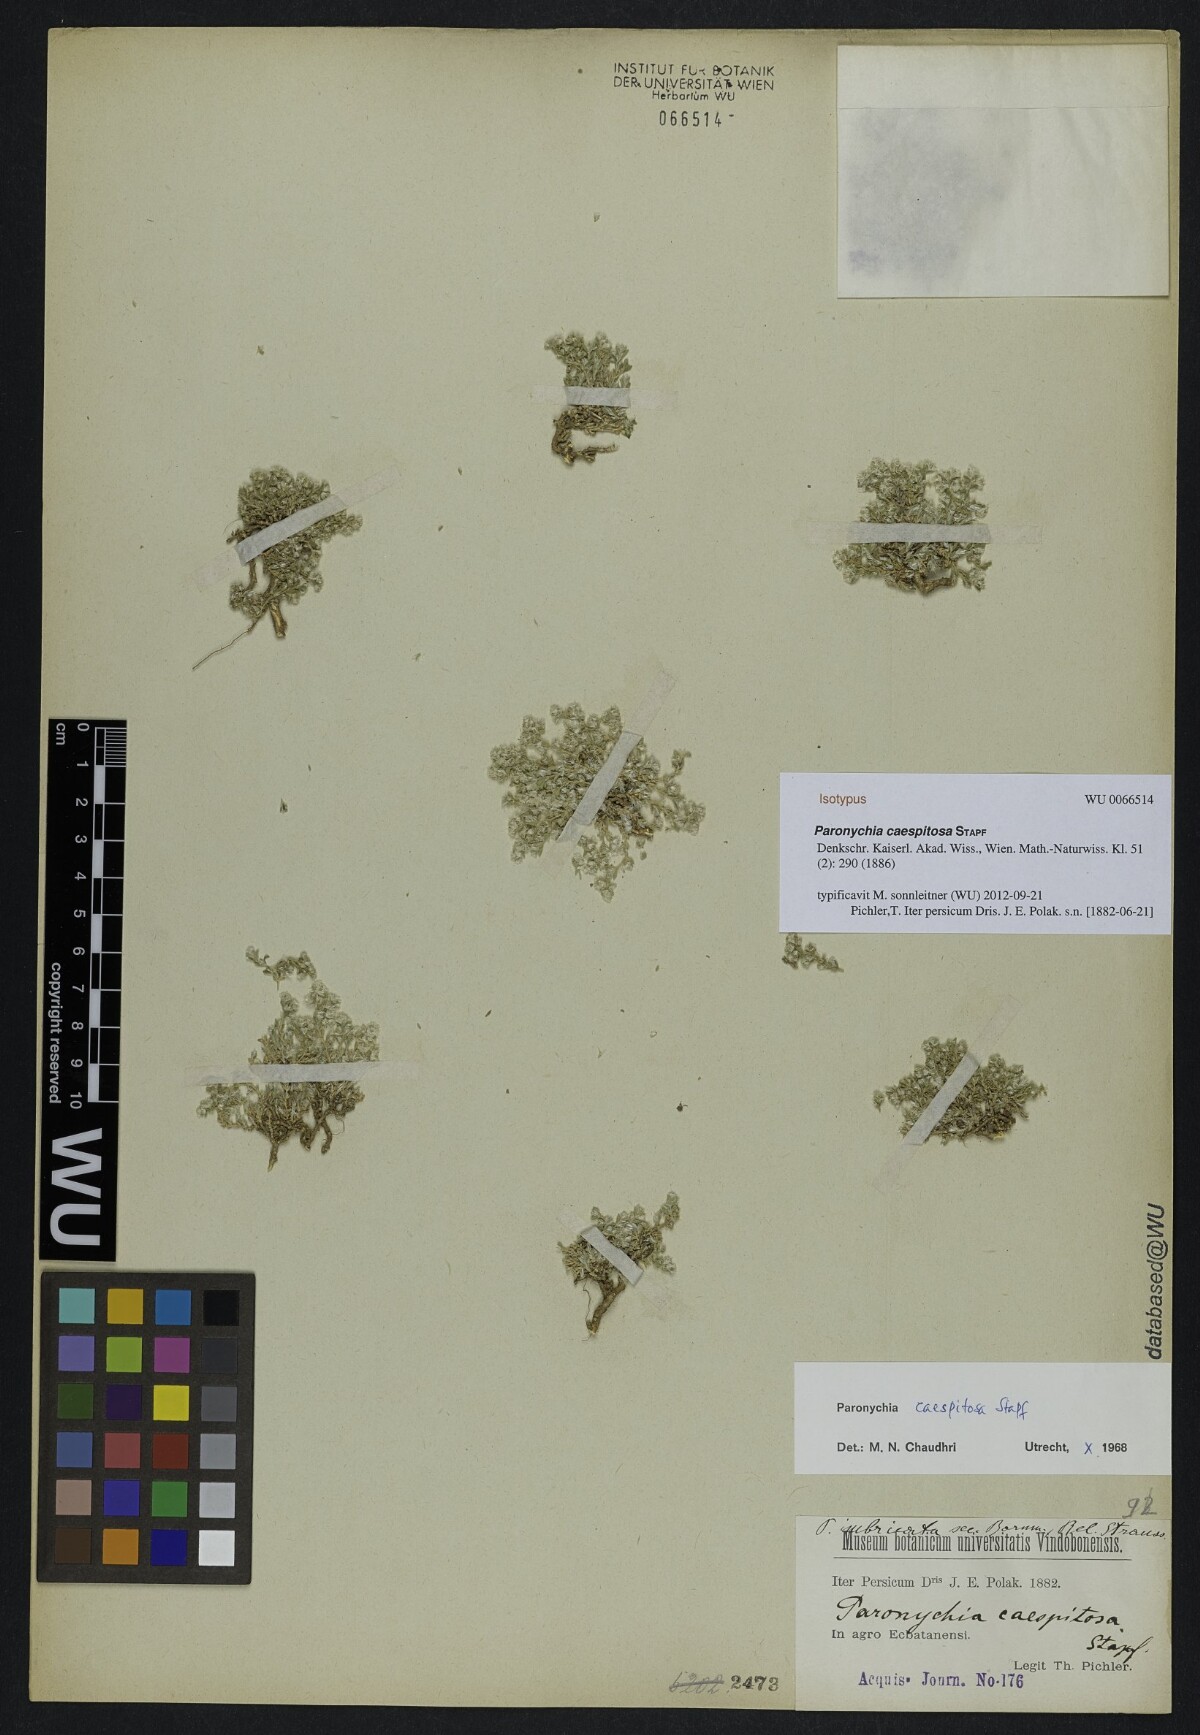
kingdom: Plantae
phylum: Tracheophyta
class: Magnoliopsida
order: Caryophyllales
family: Caryophyllaceae
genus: Paronychia
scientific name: Paronychia caespitosa
